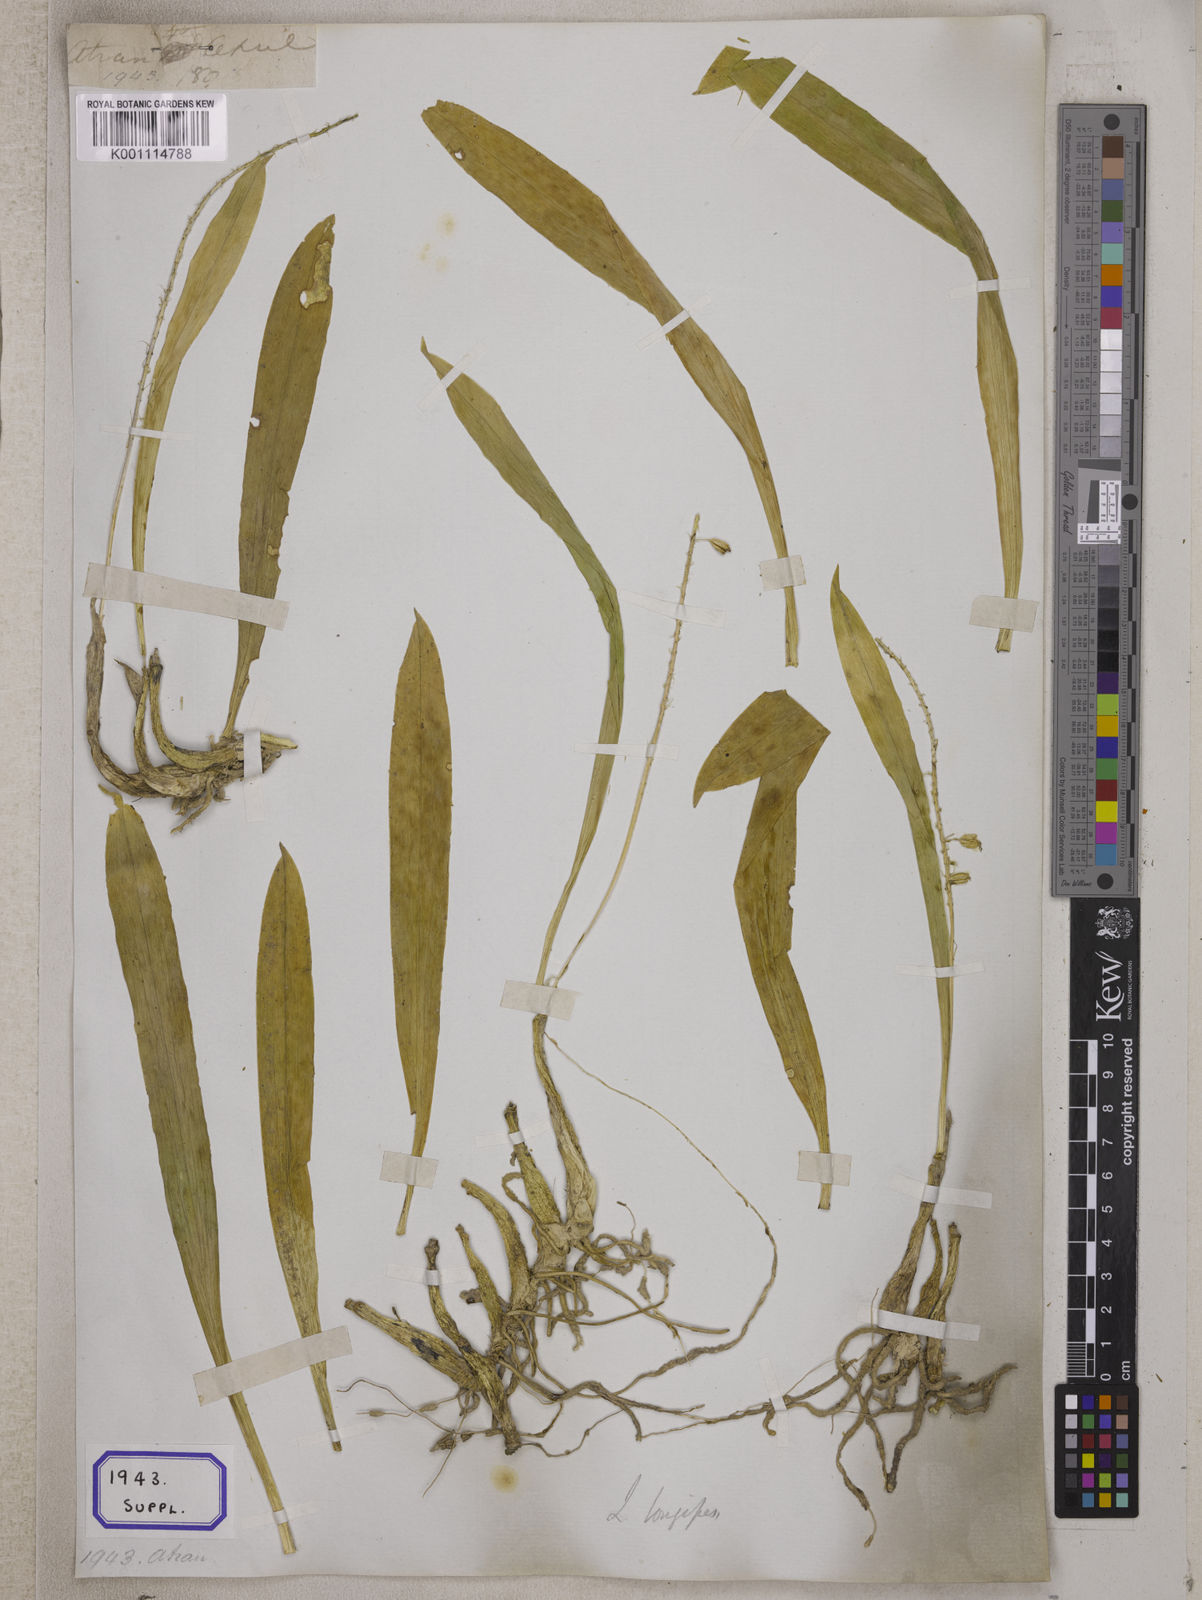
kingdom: Plantae
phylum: Tracheophyta
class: Liliopsida
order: Asparagales
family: Orchidaceae
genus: Liparis
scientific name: Liparis elegans
